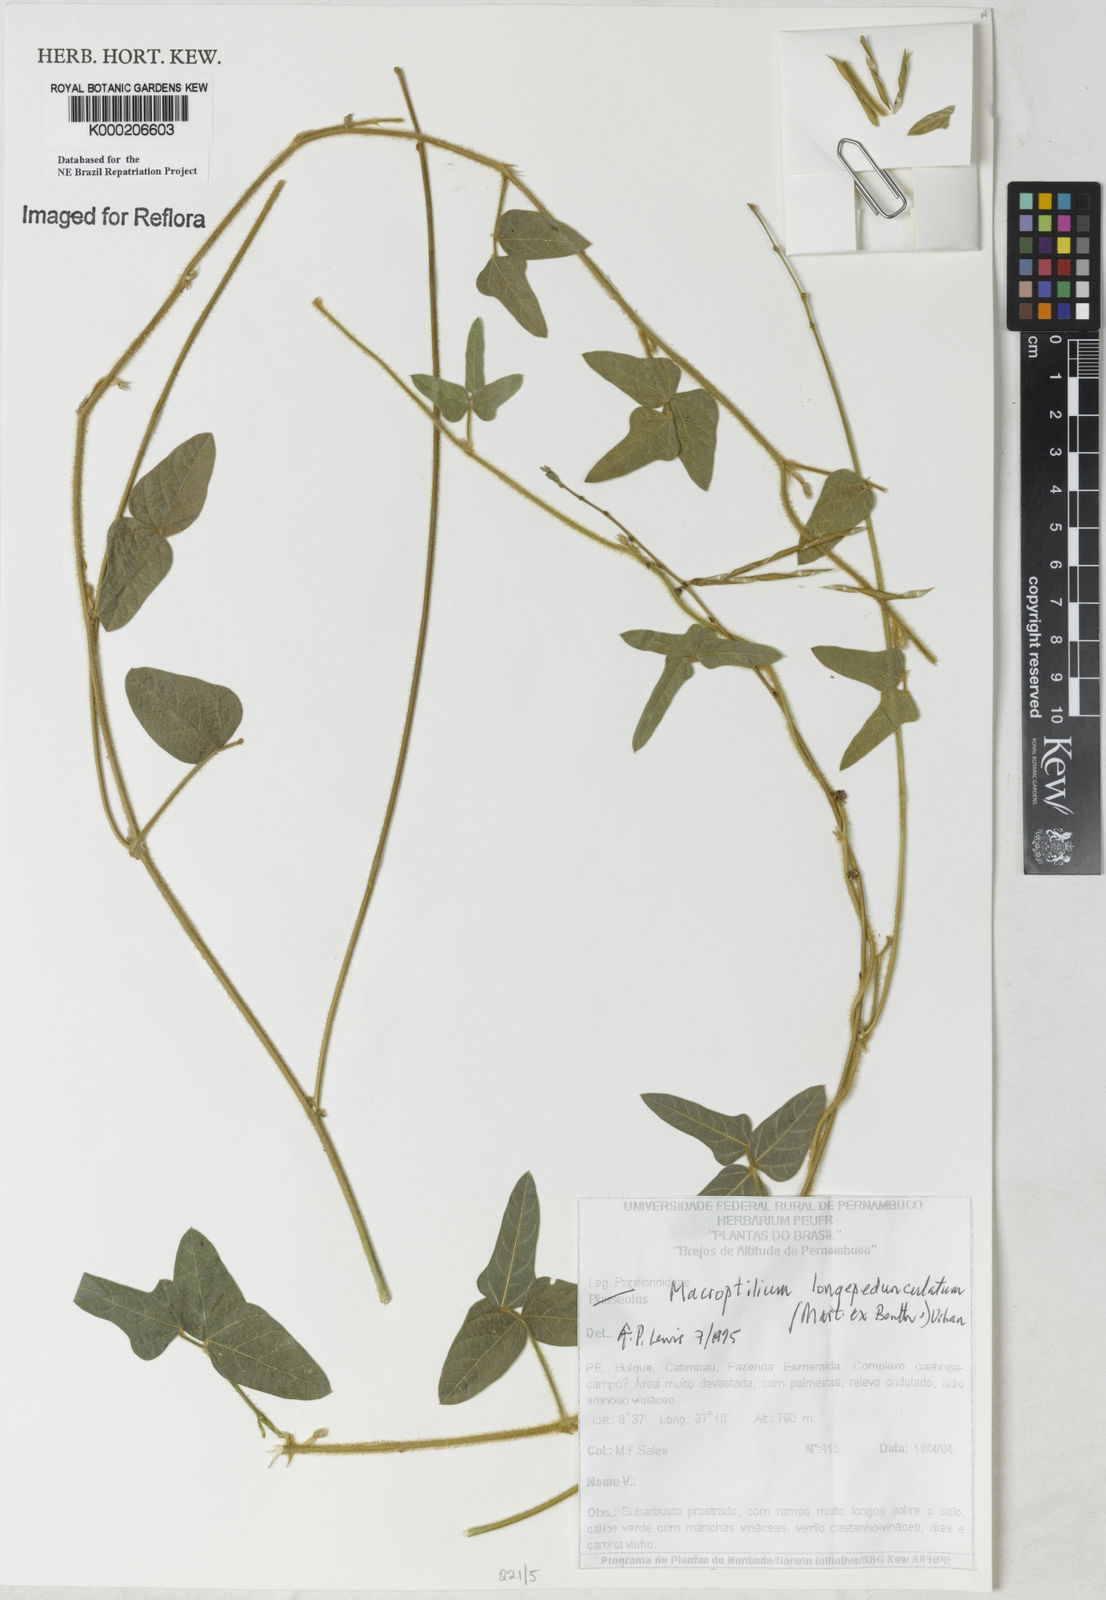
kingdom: Plantae
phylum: Tracheophyta
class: Magnoliopsida
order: Fabales
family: Fabaceae
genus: Macroptilium
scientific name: Macroptilium gracile
